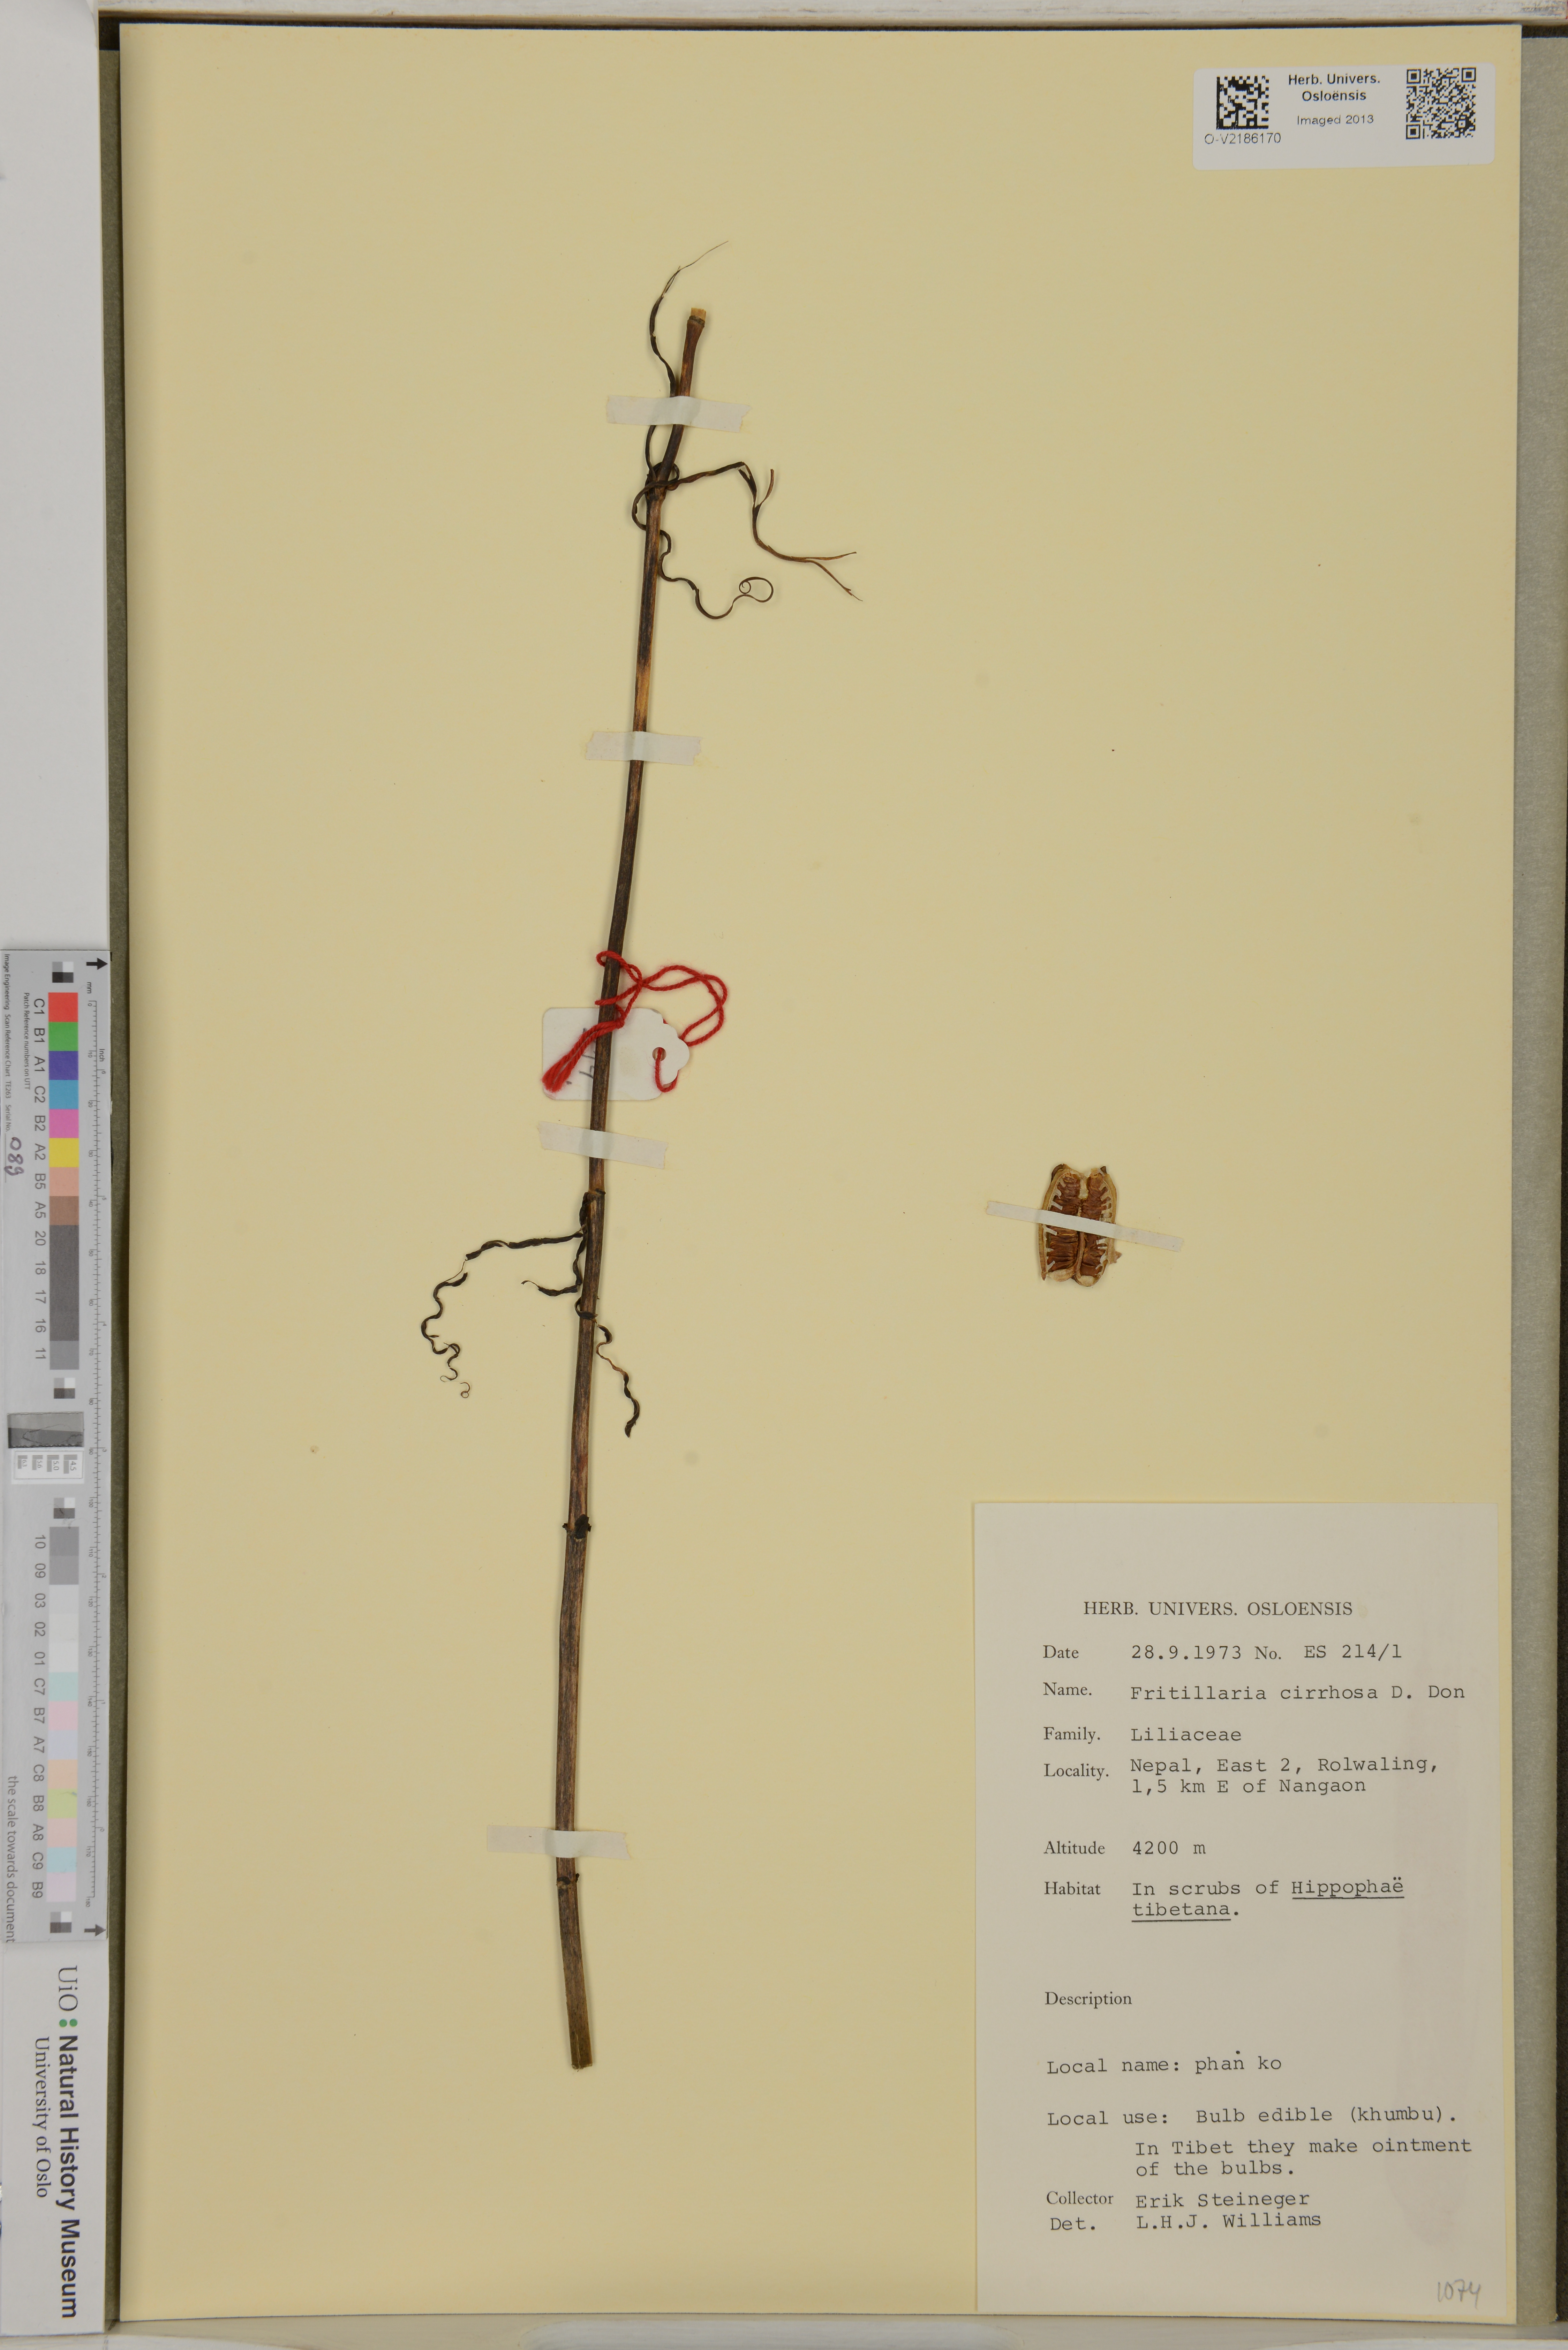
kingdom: Plantae
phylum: Tracheophyta
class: Liliopsida
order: Liliales
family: Liliaceae
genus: Fritillaria
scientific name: Fritillaria cirrhosa
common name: Sichuan fritillary
